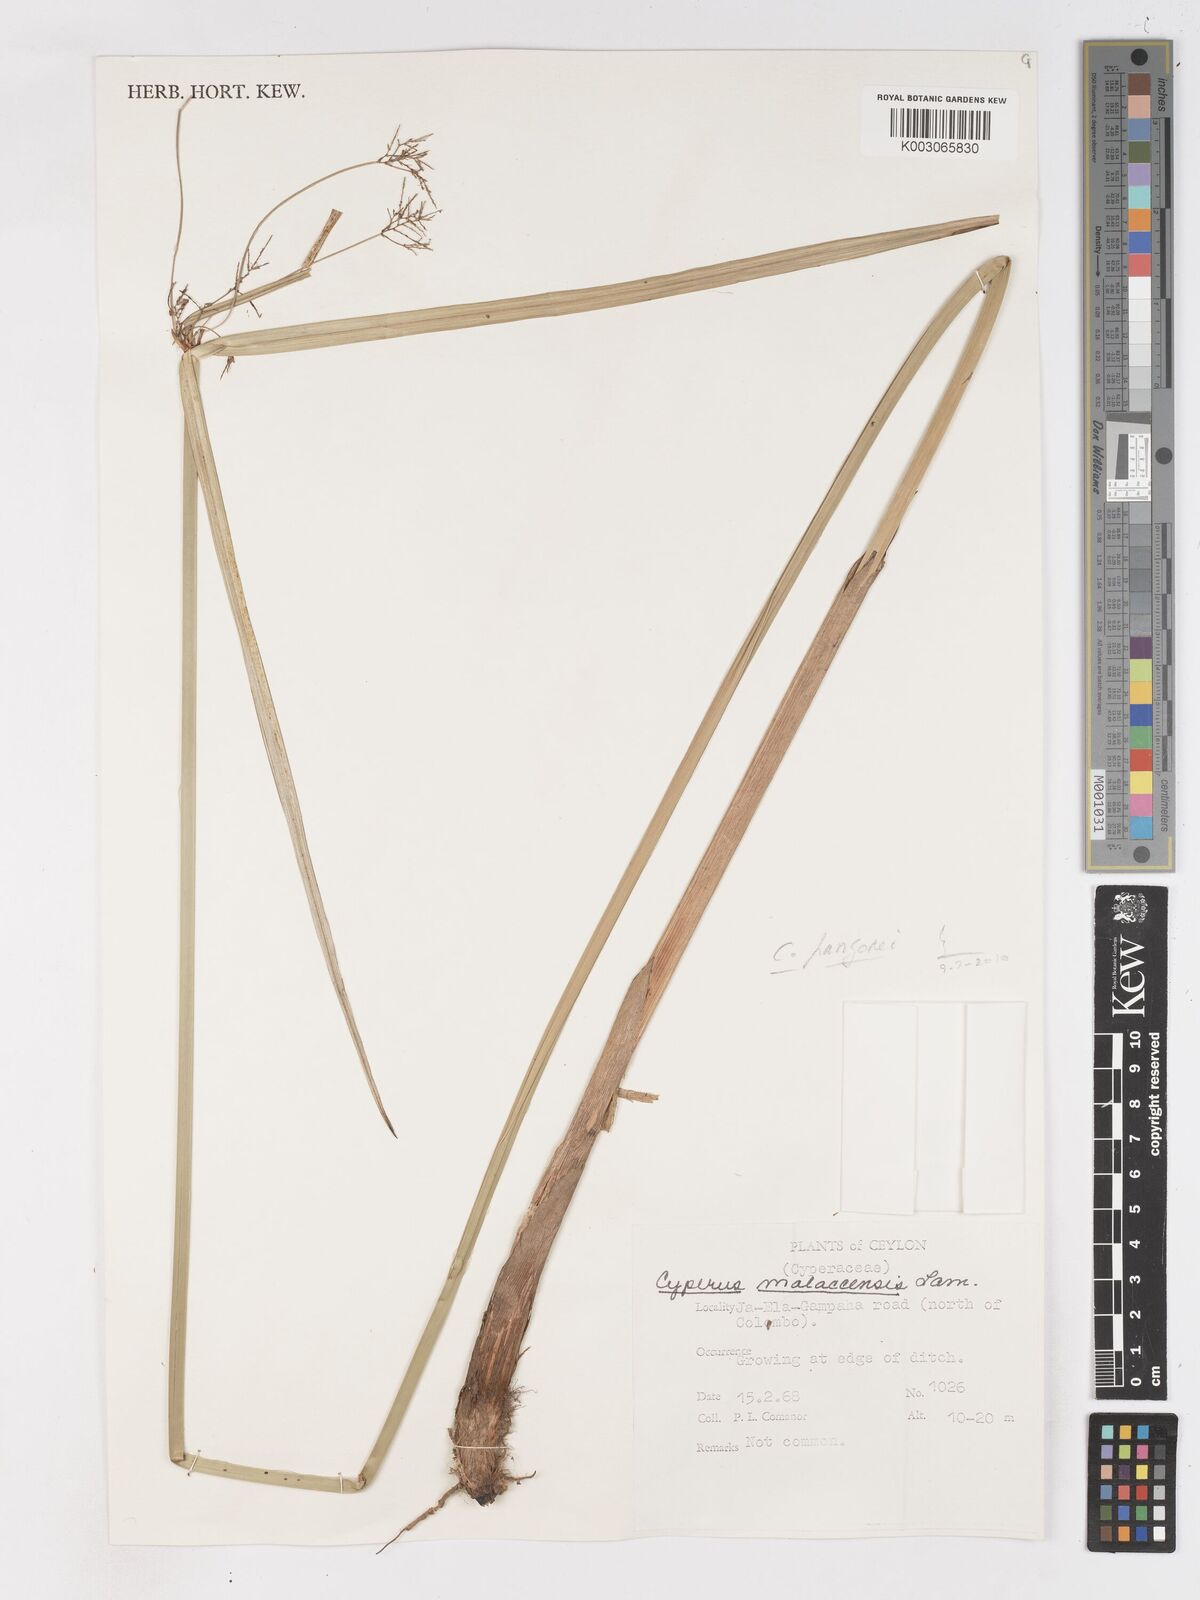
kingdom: Plantae
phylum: Tracheophyta
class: Liliopsida
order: Poales
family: Cyperaceae
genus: Cyperus
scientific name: Cyperus malaccensis
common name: Shichito matgrass
